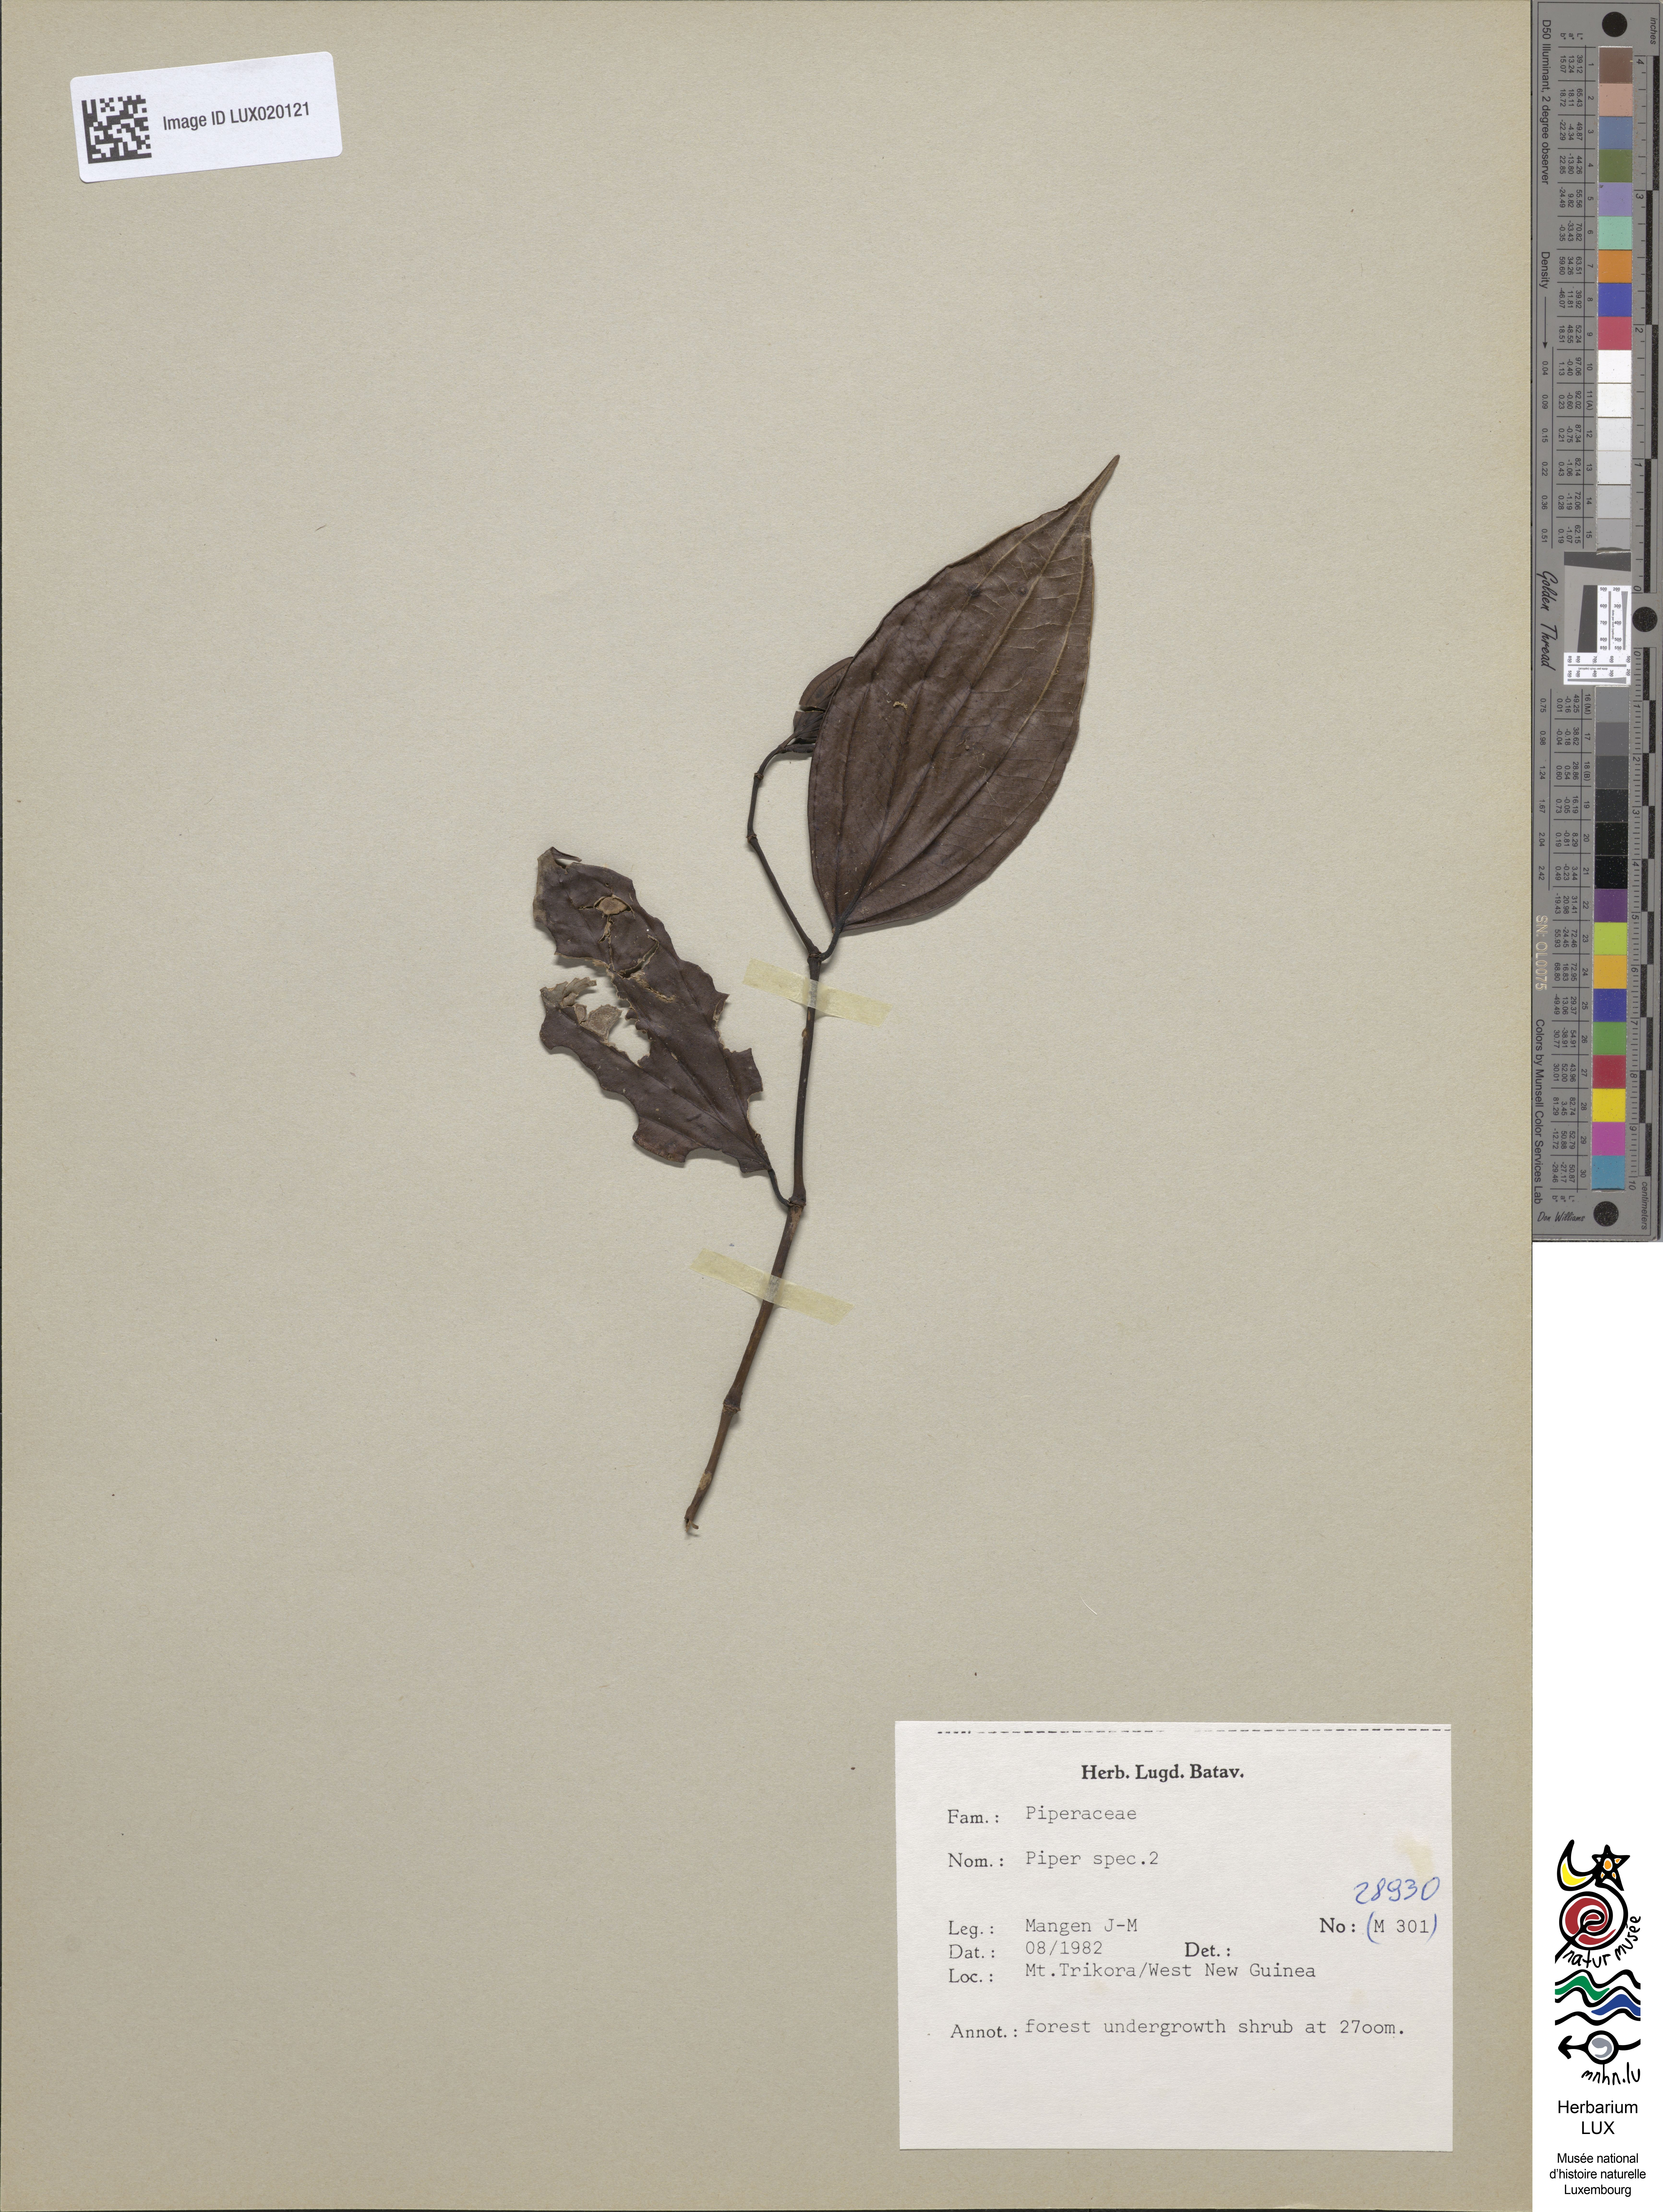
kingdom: Plantae
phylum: Tracheophyta
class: Magnoliopsida
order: Piperales
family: Piperaceae
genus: Piper
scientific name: Piper
